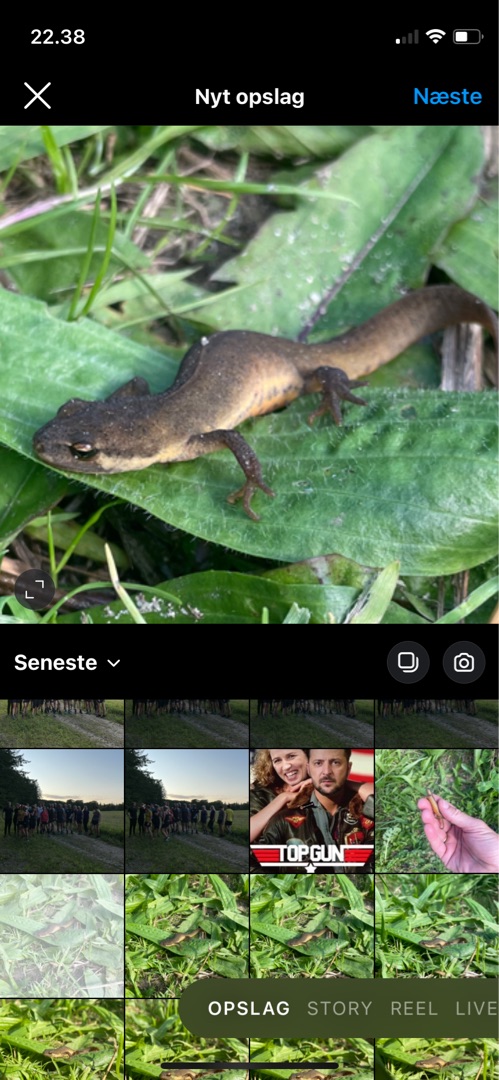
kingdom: Animalia
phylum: Chordata
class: Amphibia
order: Caudata
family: Salamandridae
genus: Lissotriton
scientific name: Lissotriton vulgaris
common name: Lille vandsalamander
